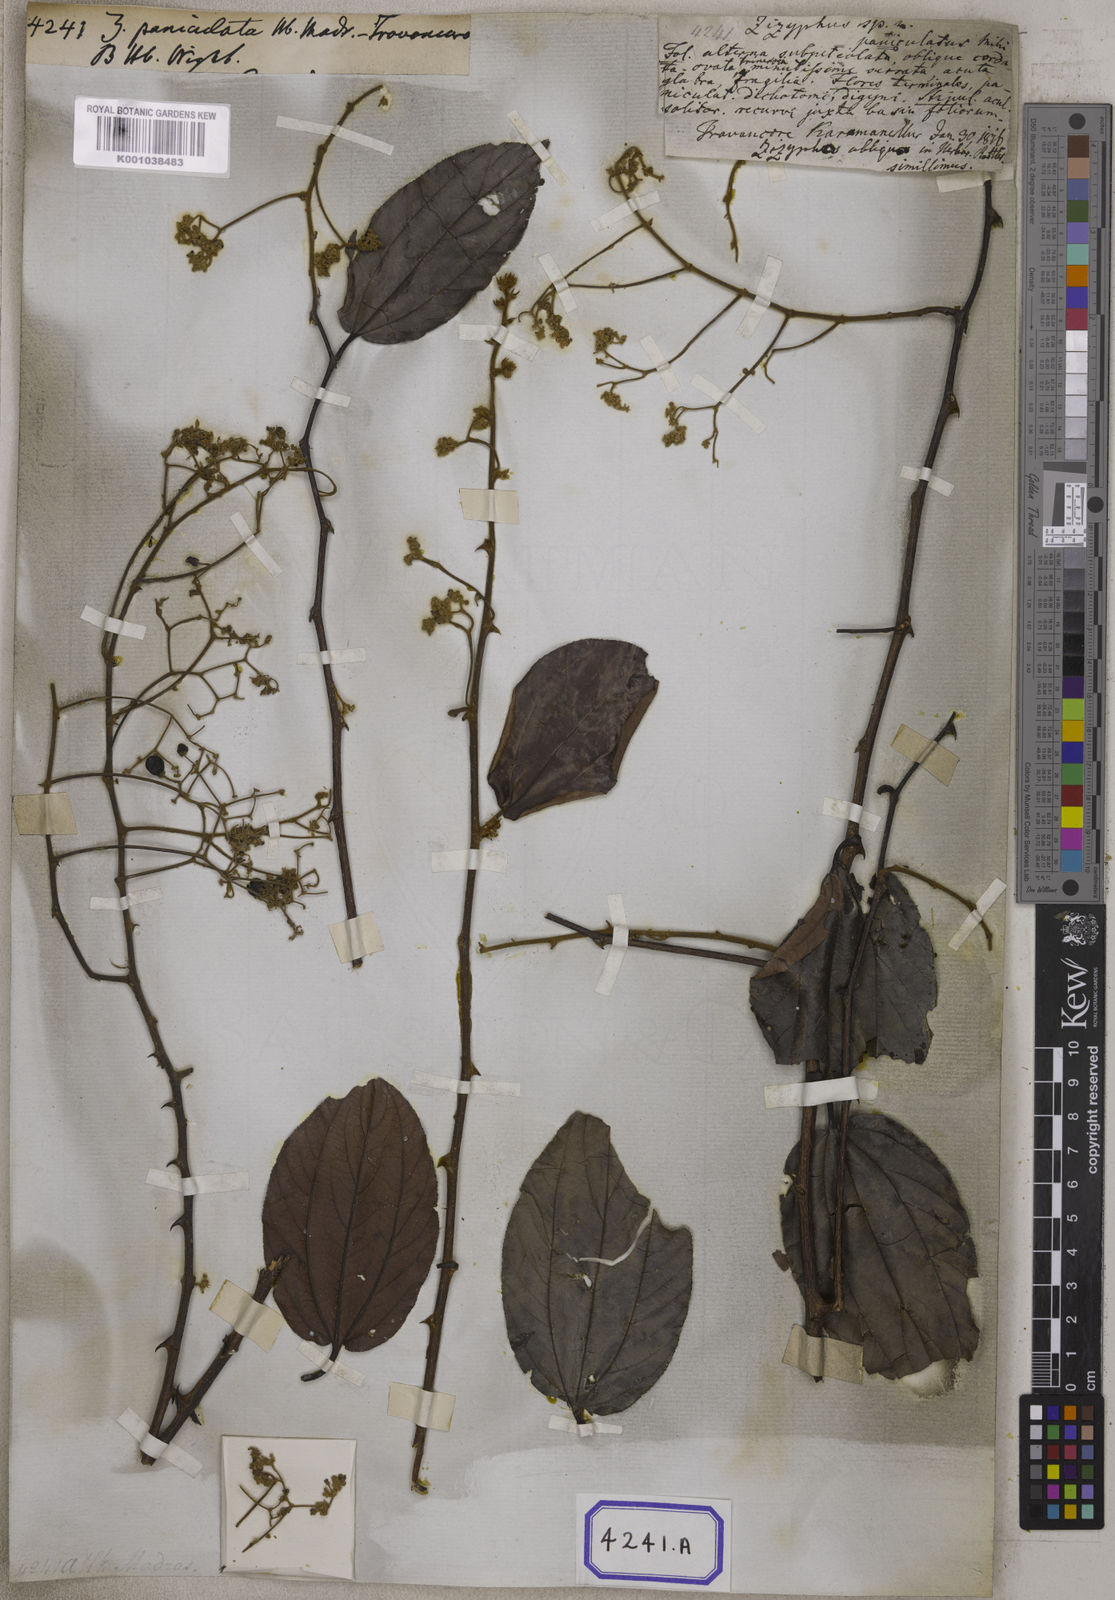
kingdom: Plantae
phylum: Tracheophyta
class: Magnoliopsida
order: Rosales
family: Rhamnaceae
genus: Ziziphus
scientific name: Ziziphus rugosa
